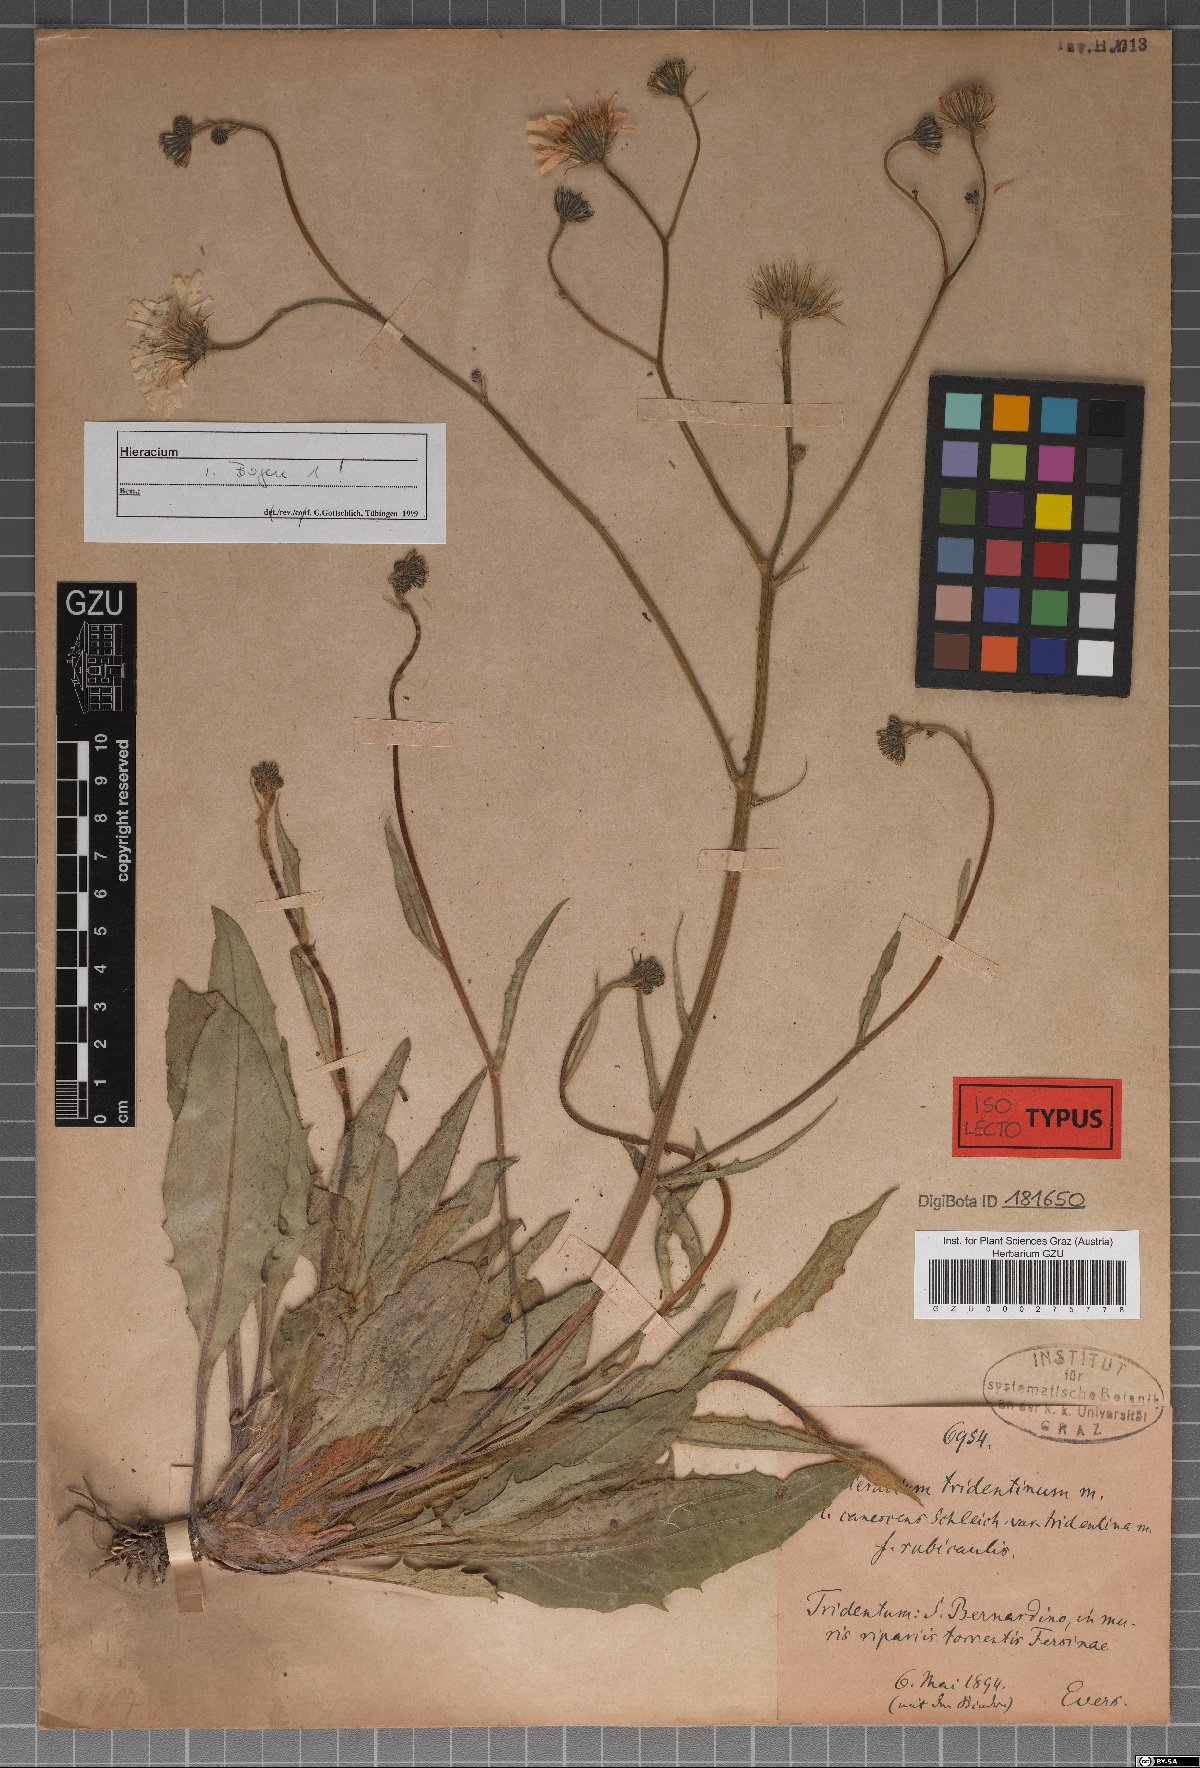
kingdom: Plantae
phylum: Tracheophyta
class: Magnoliopsida
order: Asterales
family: Asteraceae
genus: Hieracium
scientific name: Hieracium tridentinum
